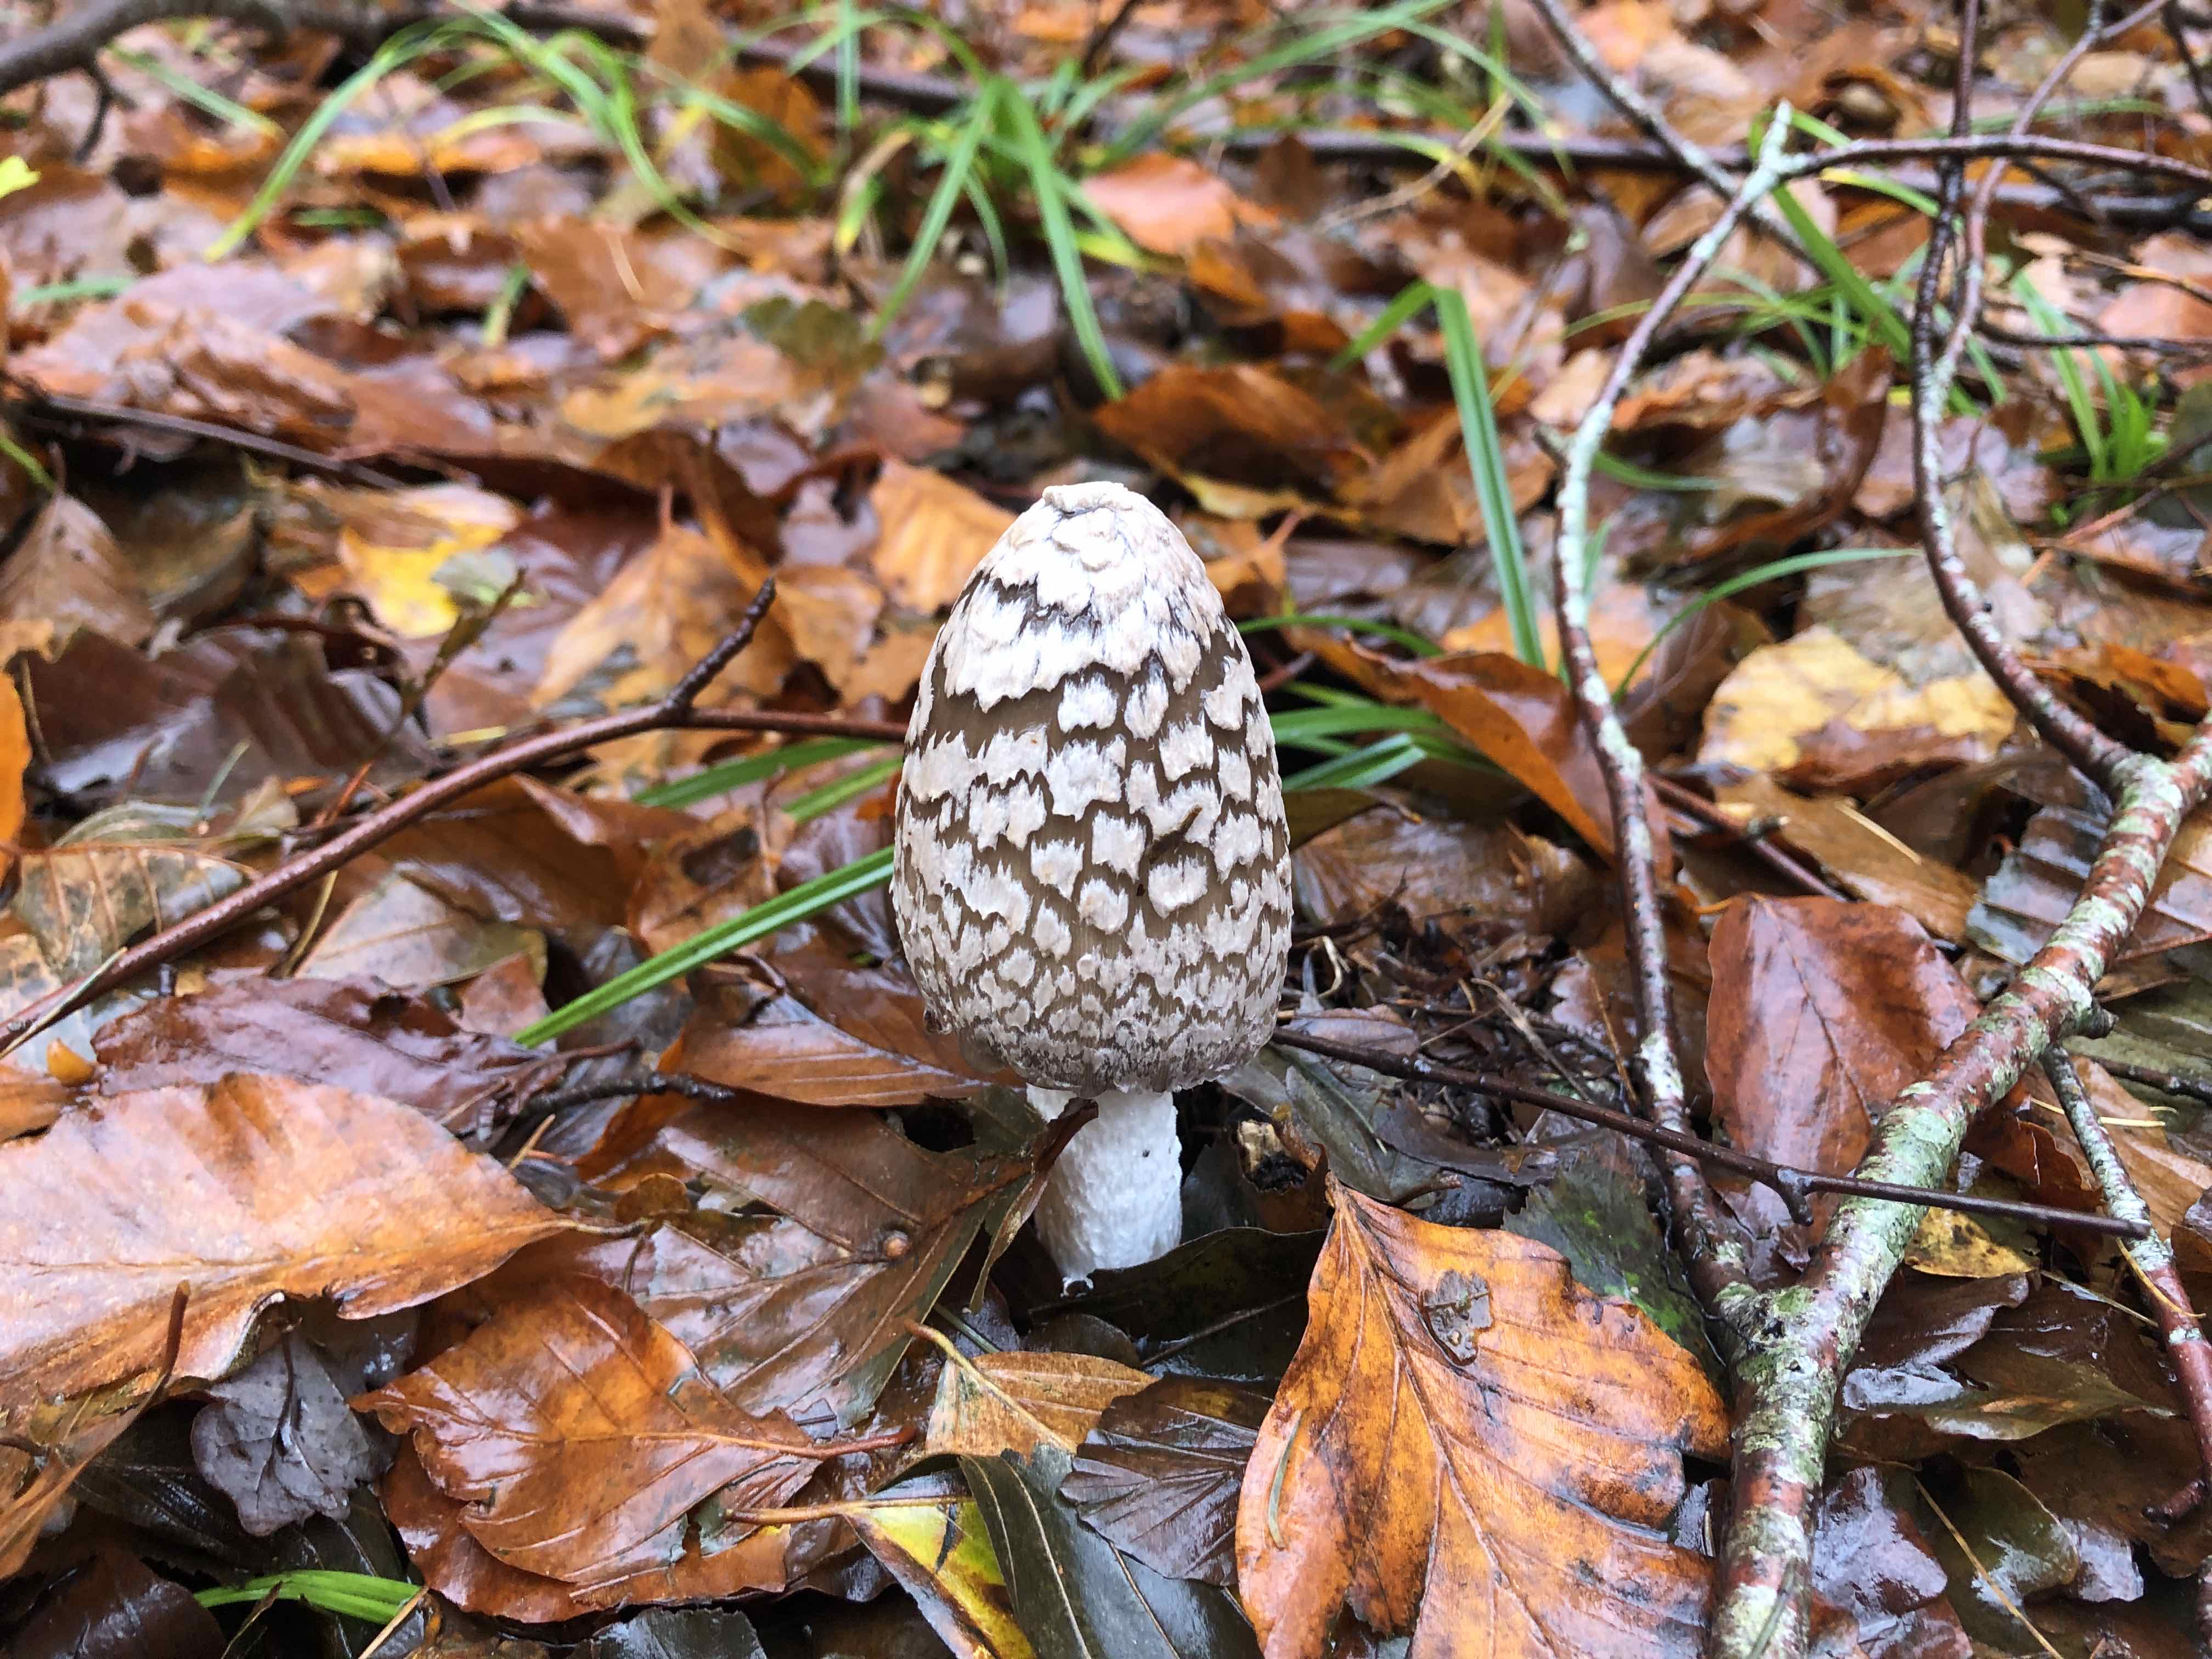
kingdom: Fungi
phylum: Basidiomycota
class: Agaricomycetes
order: Agaricales
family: Psathyrellaceae
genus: Coprinopsis
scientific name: Coprinopsis picacea
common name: skade-blækhat
